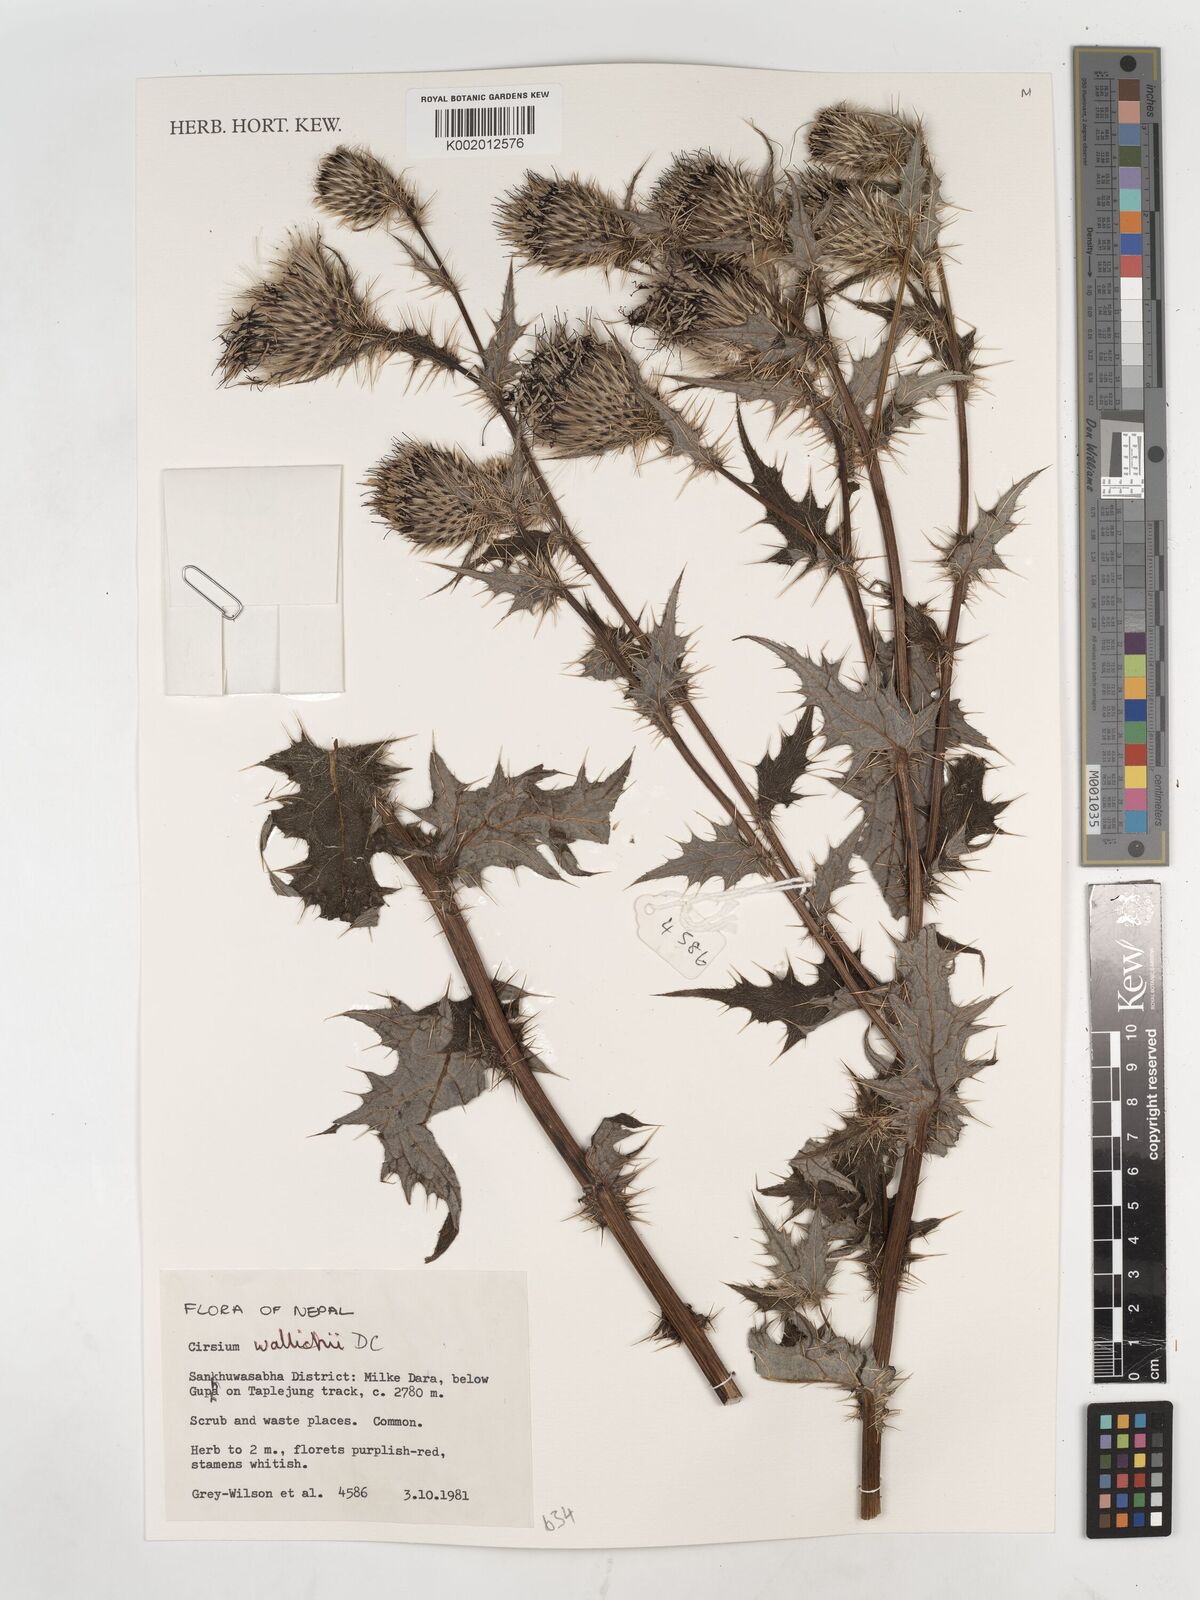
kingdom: Plantae
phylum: Tracheophyta
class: Magnoliopsida
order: Asterales
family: Asteraceae
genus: Cirsium
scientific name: Cirsium wallichii
